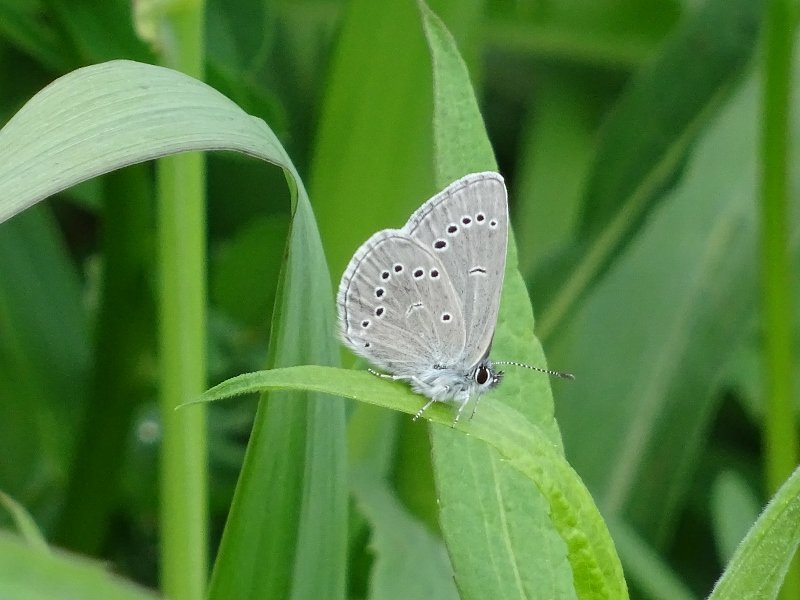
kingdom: Animalia
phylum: Arthropoda
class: Insecta
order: Lepidoptera
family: Lycaenidae
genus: Glaucopsyche
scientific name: Glaucopsyche lygdamus
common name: Silvery Blue
